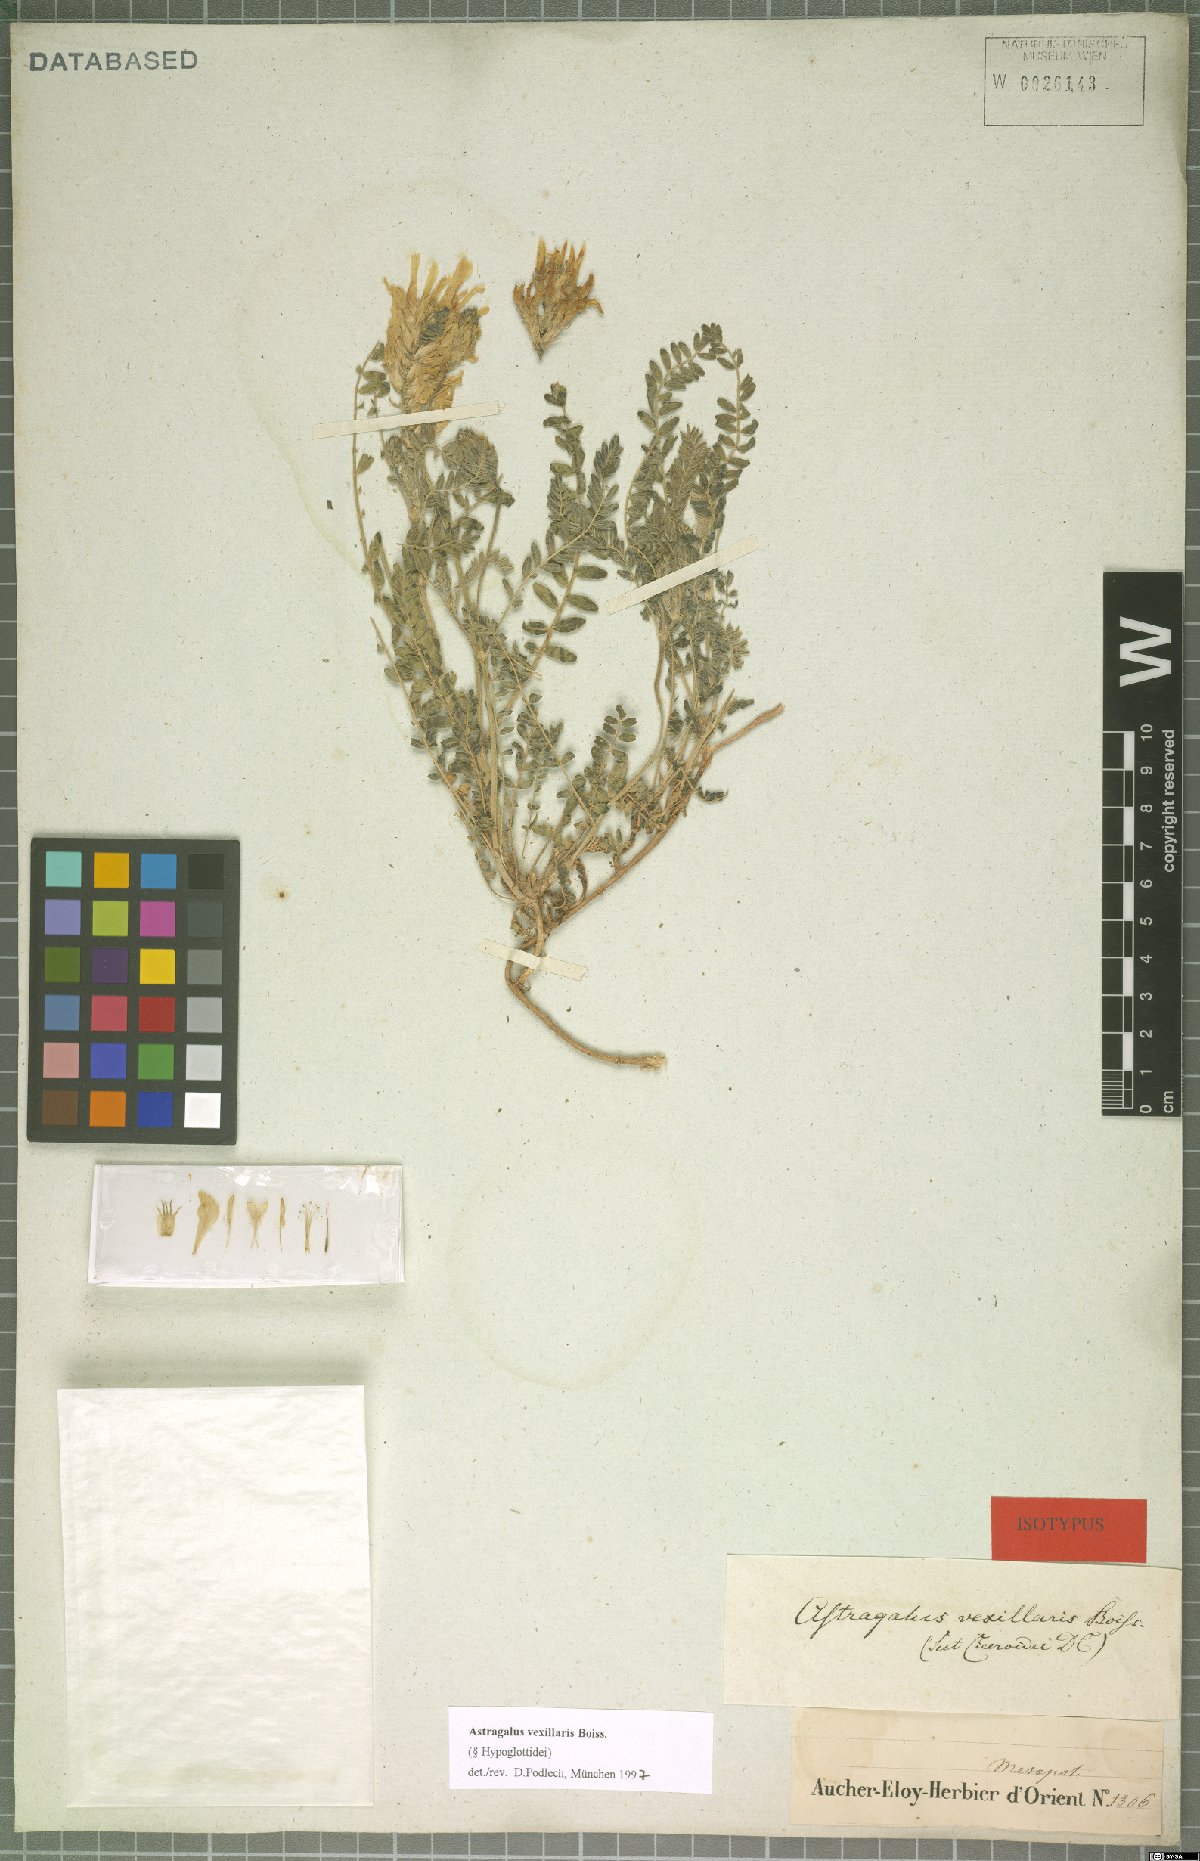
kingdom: Plantae
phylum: Tracheophyta
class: Magnoliopsida
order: Fabales
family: Fabaceae
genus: Astragalus
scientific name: Astragalus vexillaris
